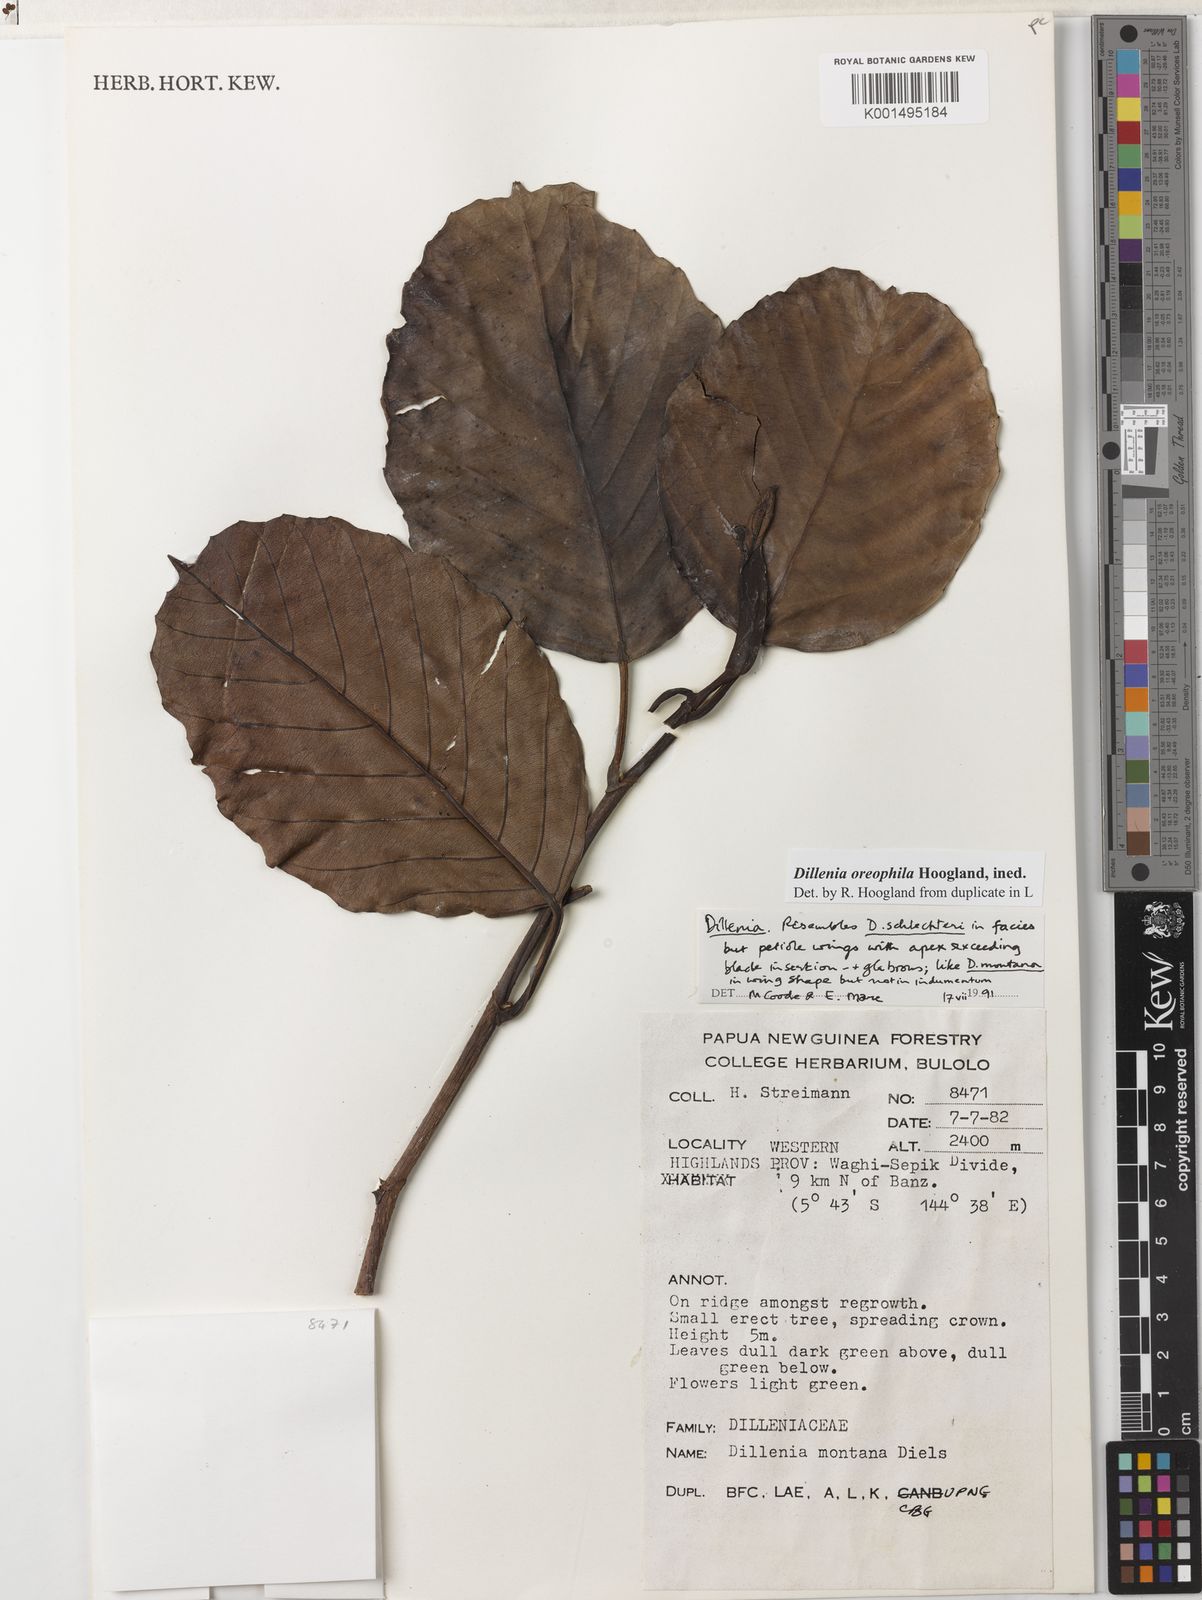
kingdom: Plantae
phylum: Tracheophyta
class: Magnoliopsida
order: Dilleniales
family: Dilleniaceae
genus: Dillenia
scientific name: Dillenia
